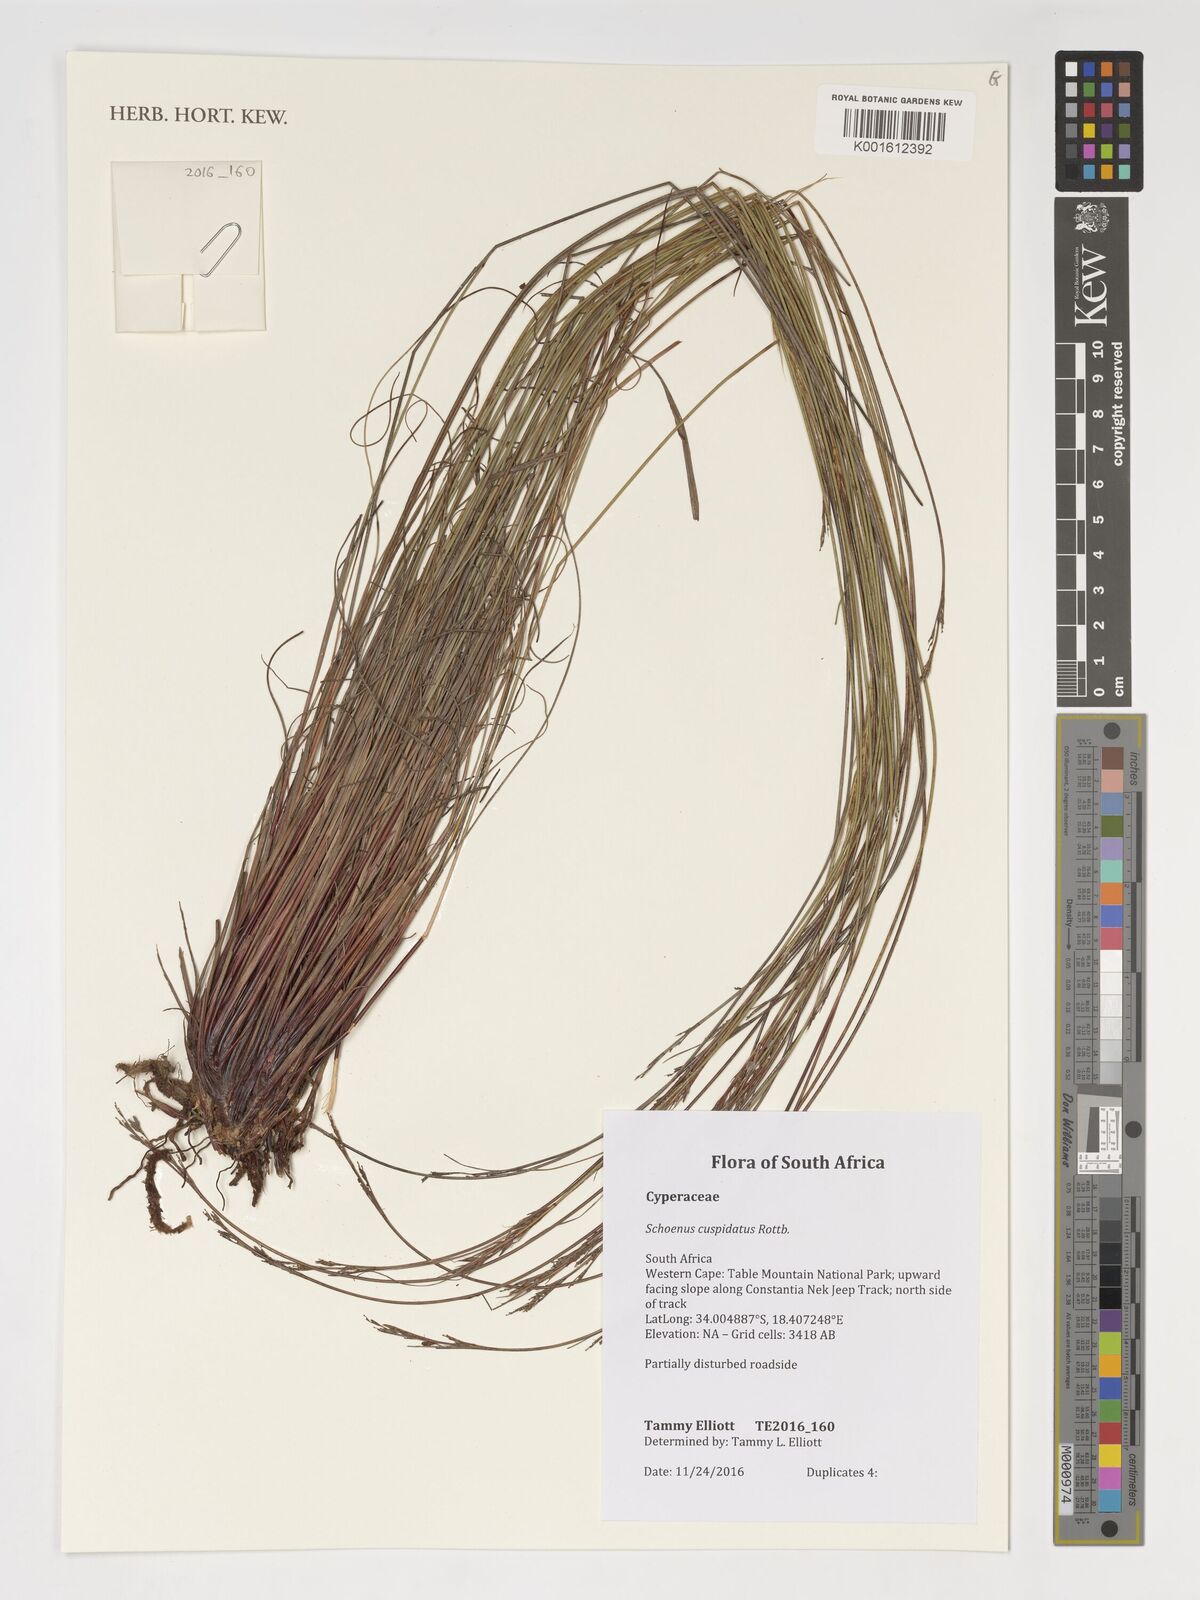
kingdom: Plantae
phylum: Tracheophyta
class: Liliopsida
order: Poales
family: Cyperaceae
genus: Schoenus
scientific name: Schoenus cuspidatus
